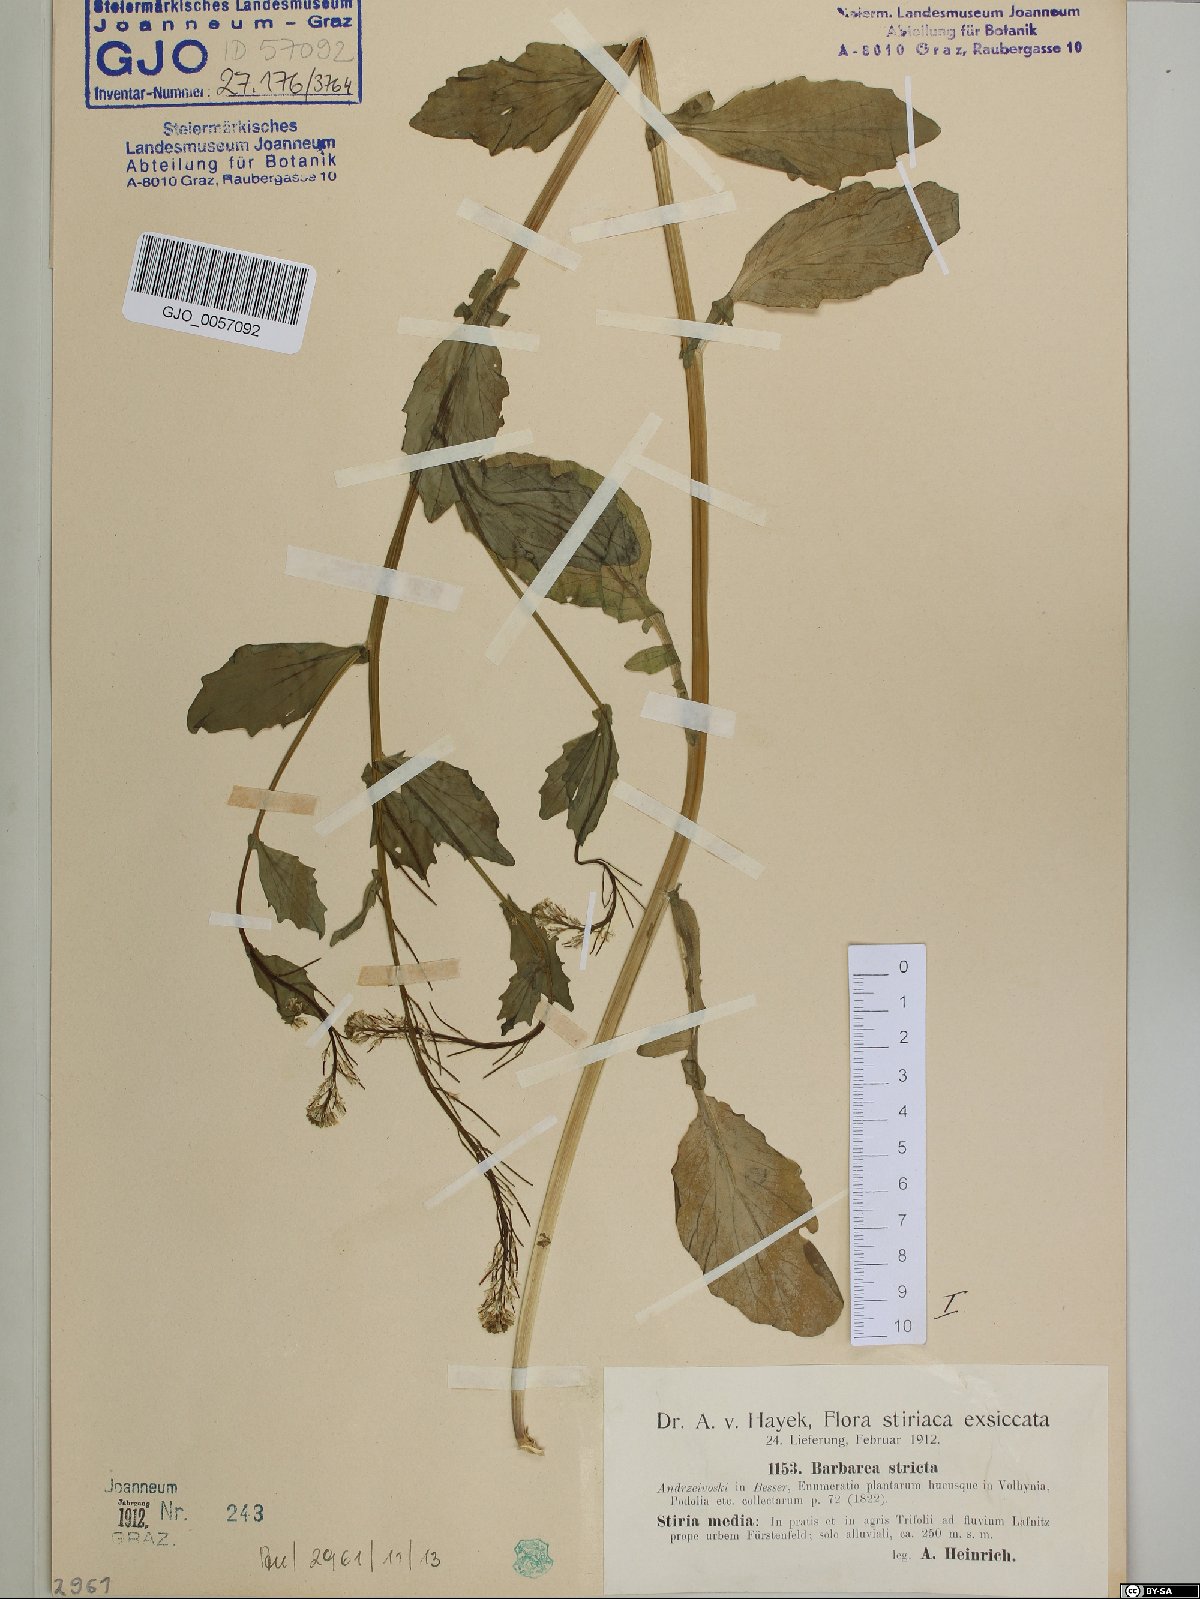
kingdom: Plantae
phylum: Tracheophyta
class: Magnoliopsida
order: Brassicales
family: Brassicaceae
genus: Barbarea
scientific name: Barbarea stricta
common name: Small-flowered winter-cress
